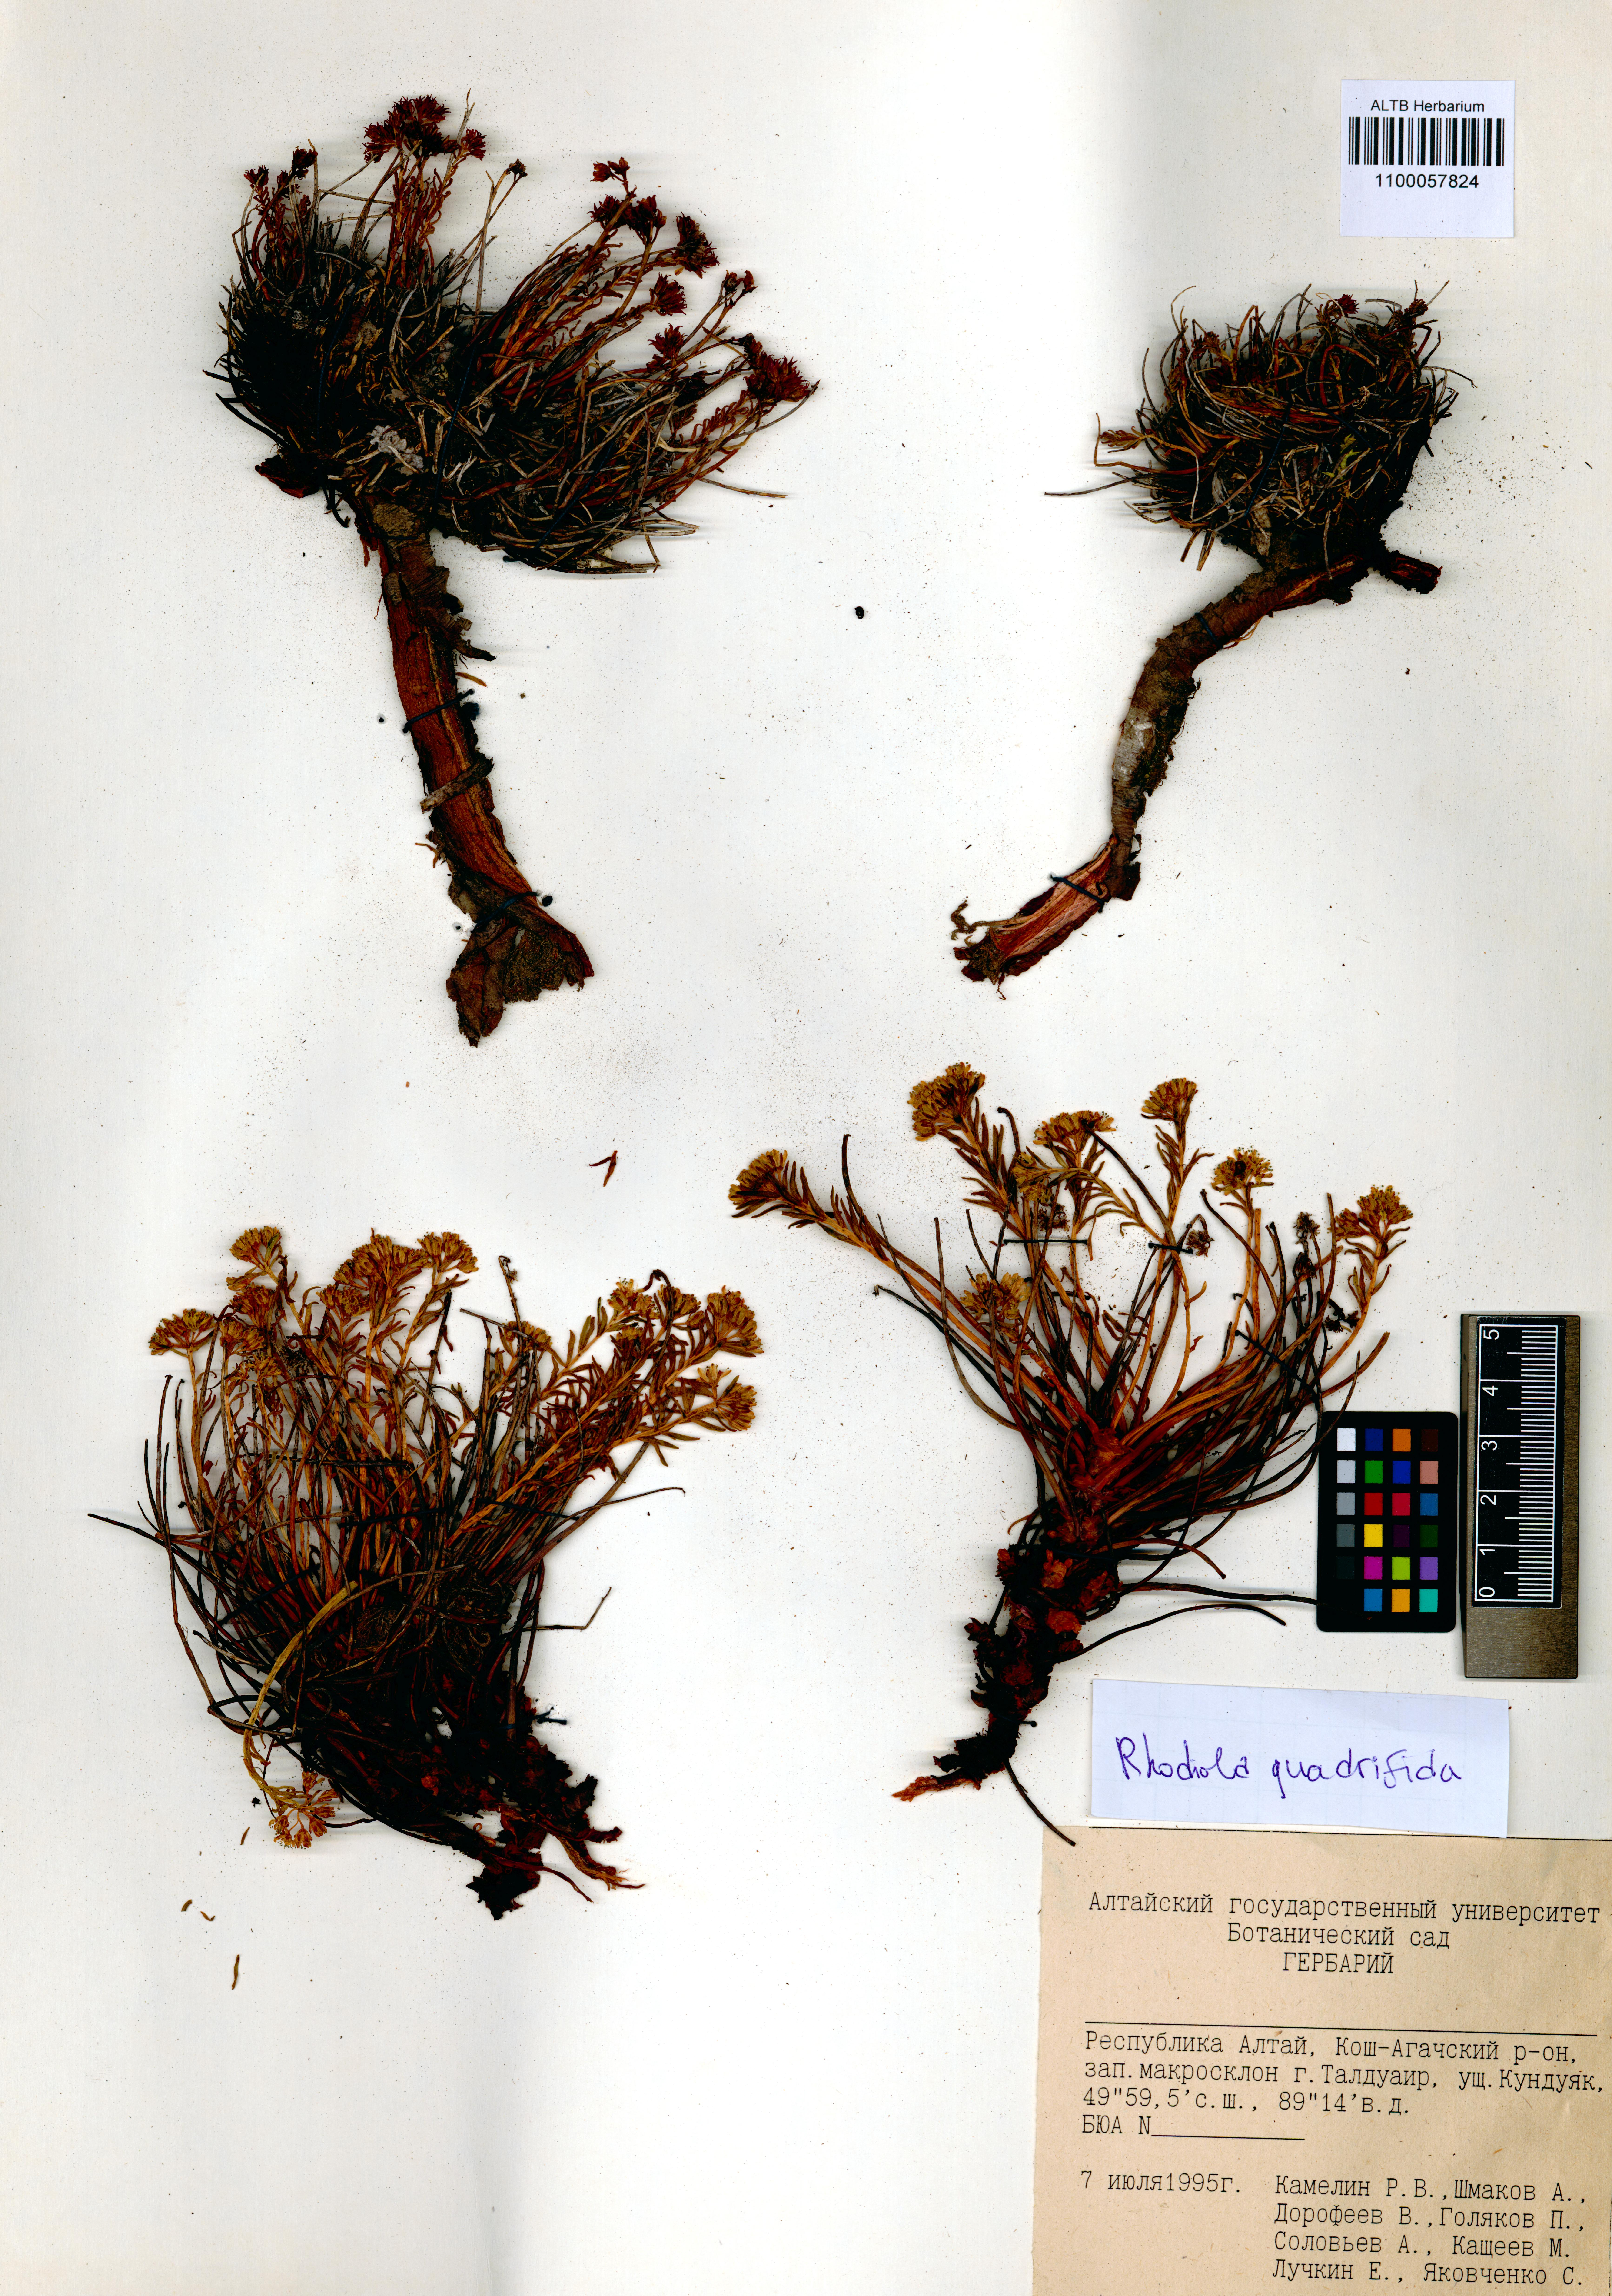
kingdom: Plantae
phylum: Tracheophyta
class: Magnoliopsida
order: Saxifragales
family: Crassulaceae
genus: Rhodiola
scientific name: Rhodiola quadrifida
